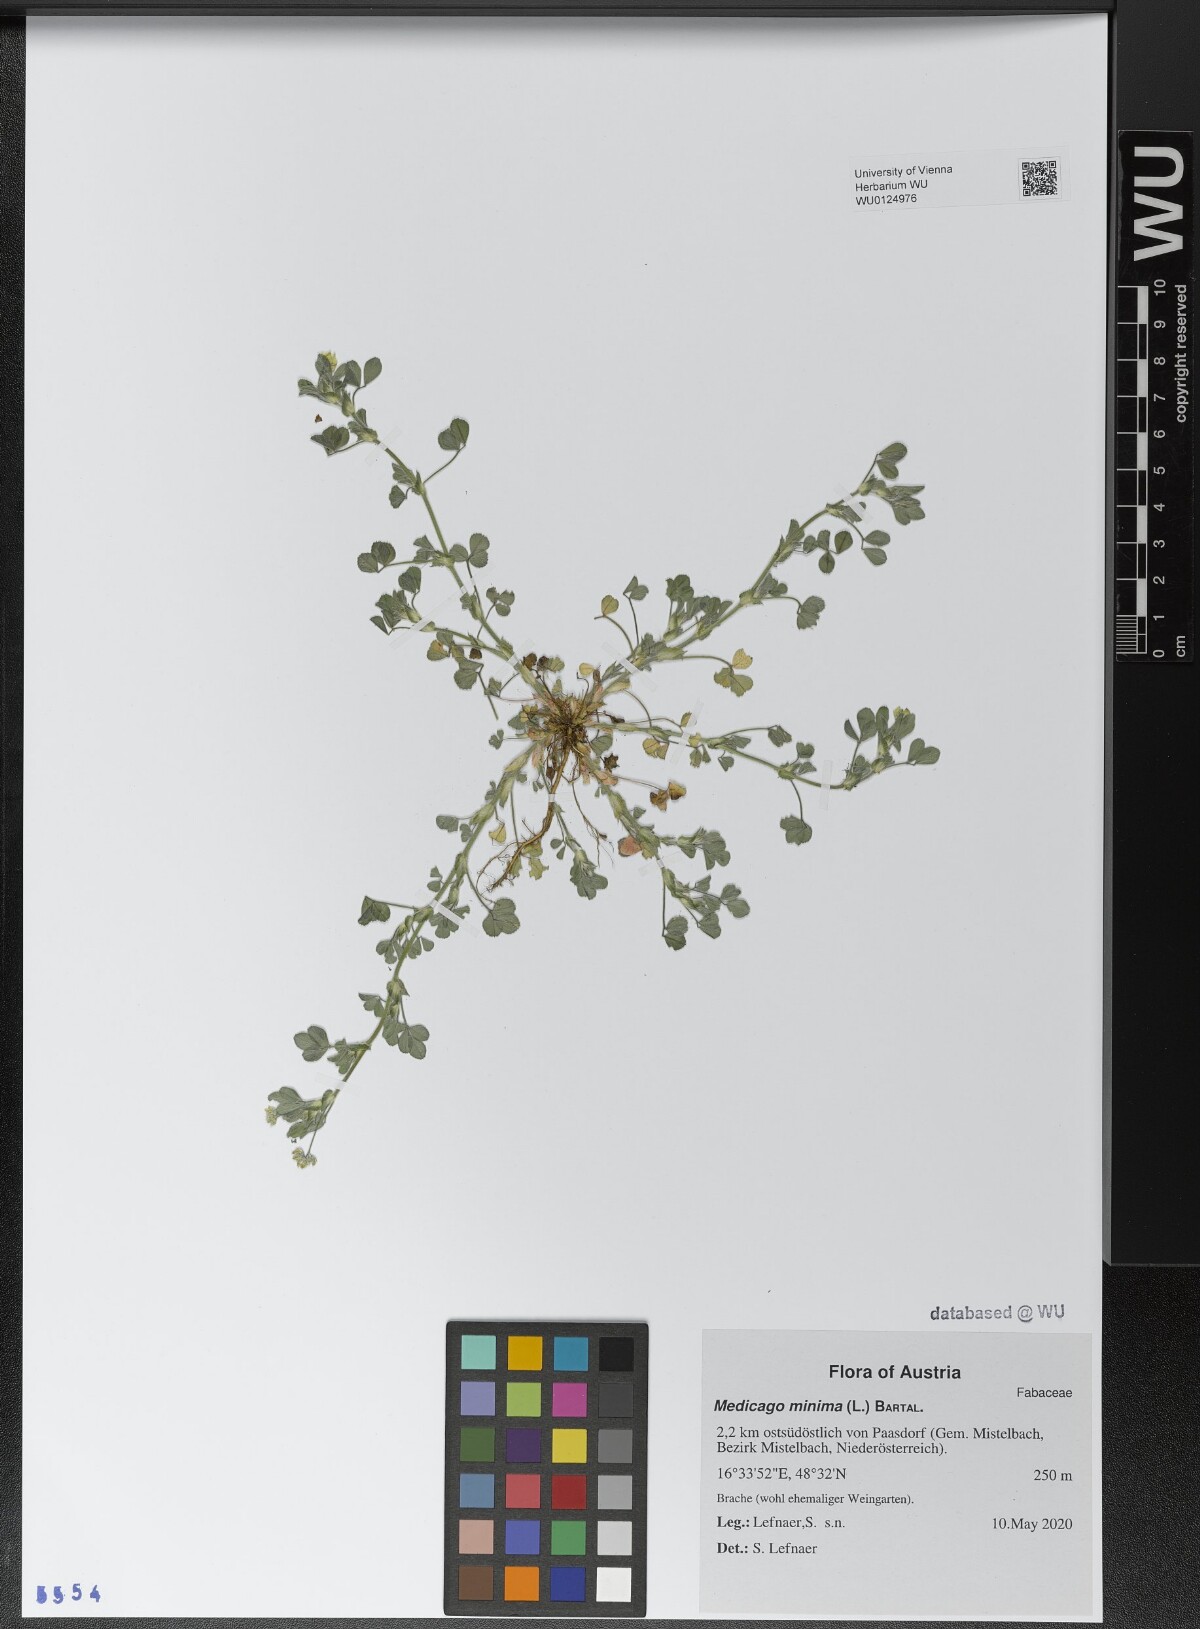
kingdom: Plantae
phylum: Tracheophyta
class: Magnoliopsida
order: Fabales
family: Fabaceae
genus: Medicago
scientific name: Medicago minima
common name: Little bur-clover
